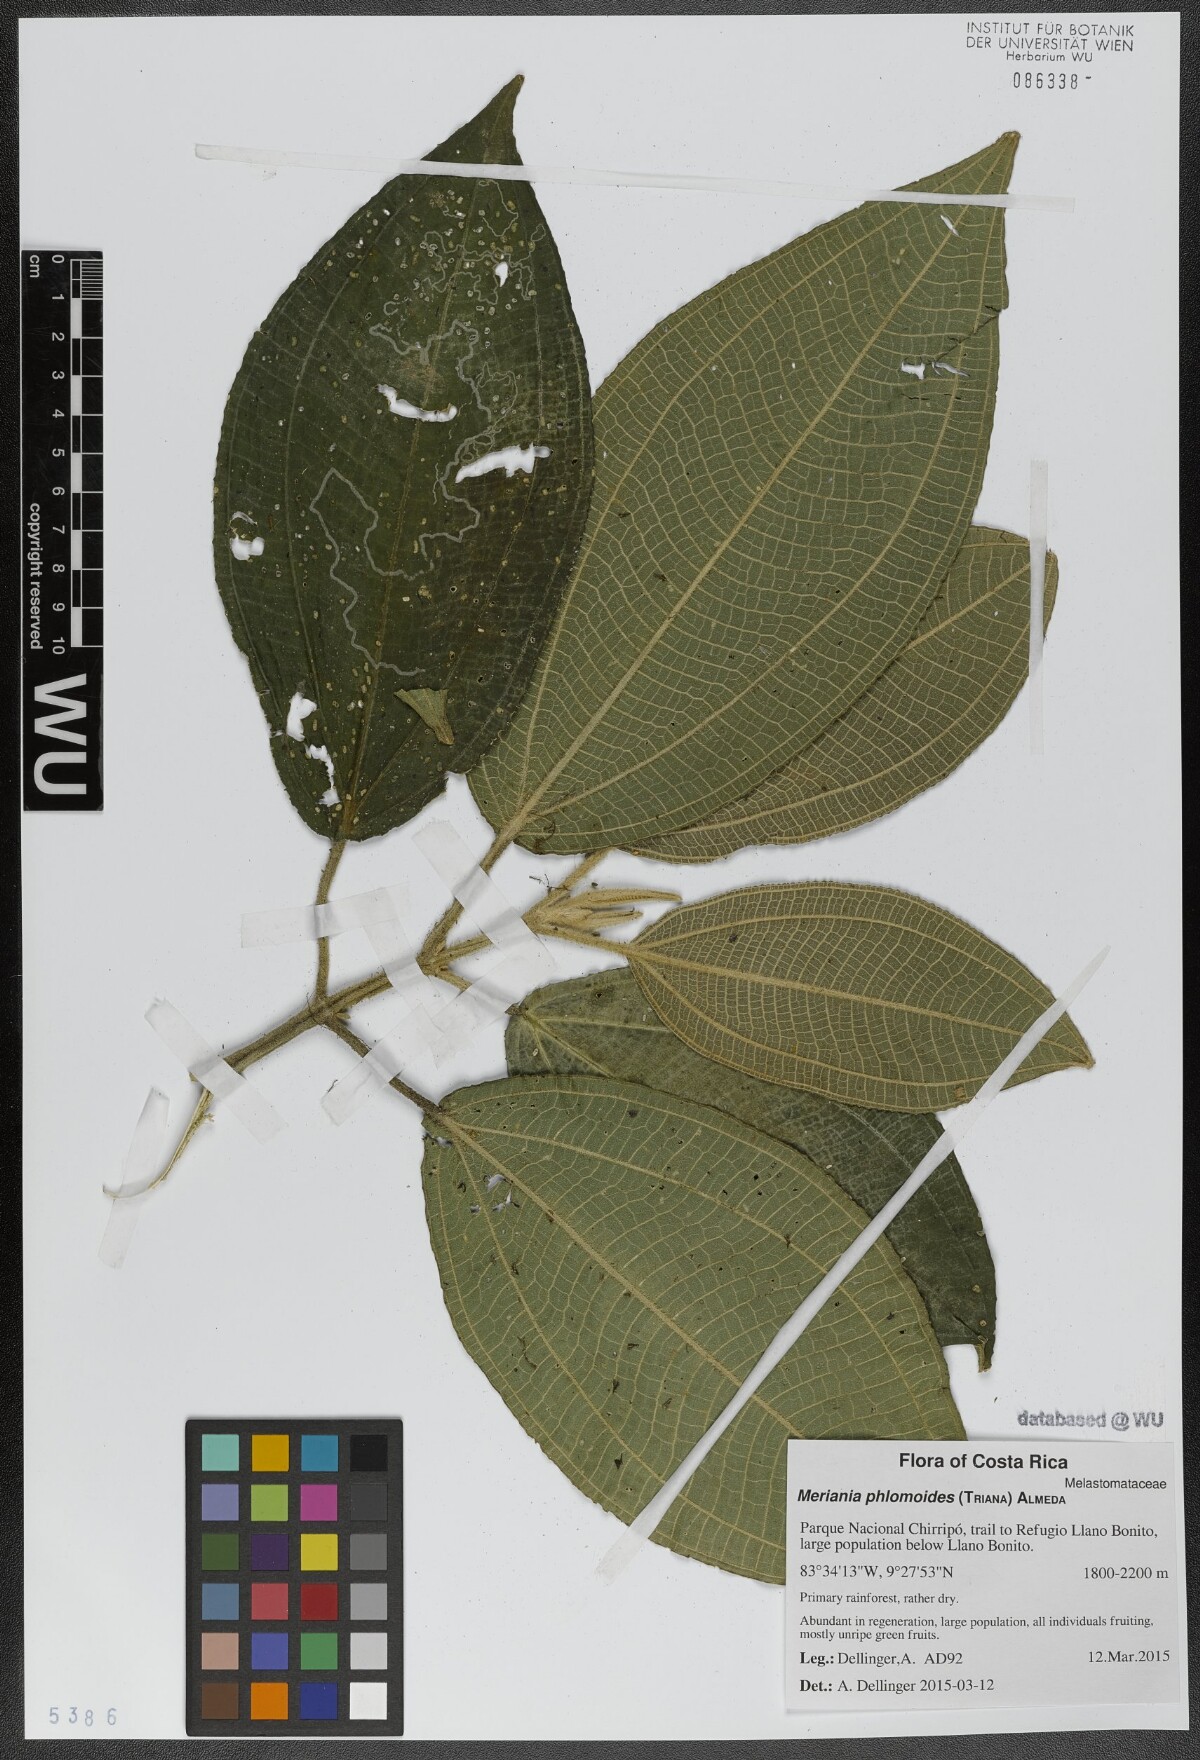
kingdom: Plantae
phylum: Tracheophyta
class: Magnoliopsida
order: Myrtales
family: Melastomataceae
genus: Meriania
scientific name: Meriania phlomoides
